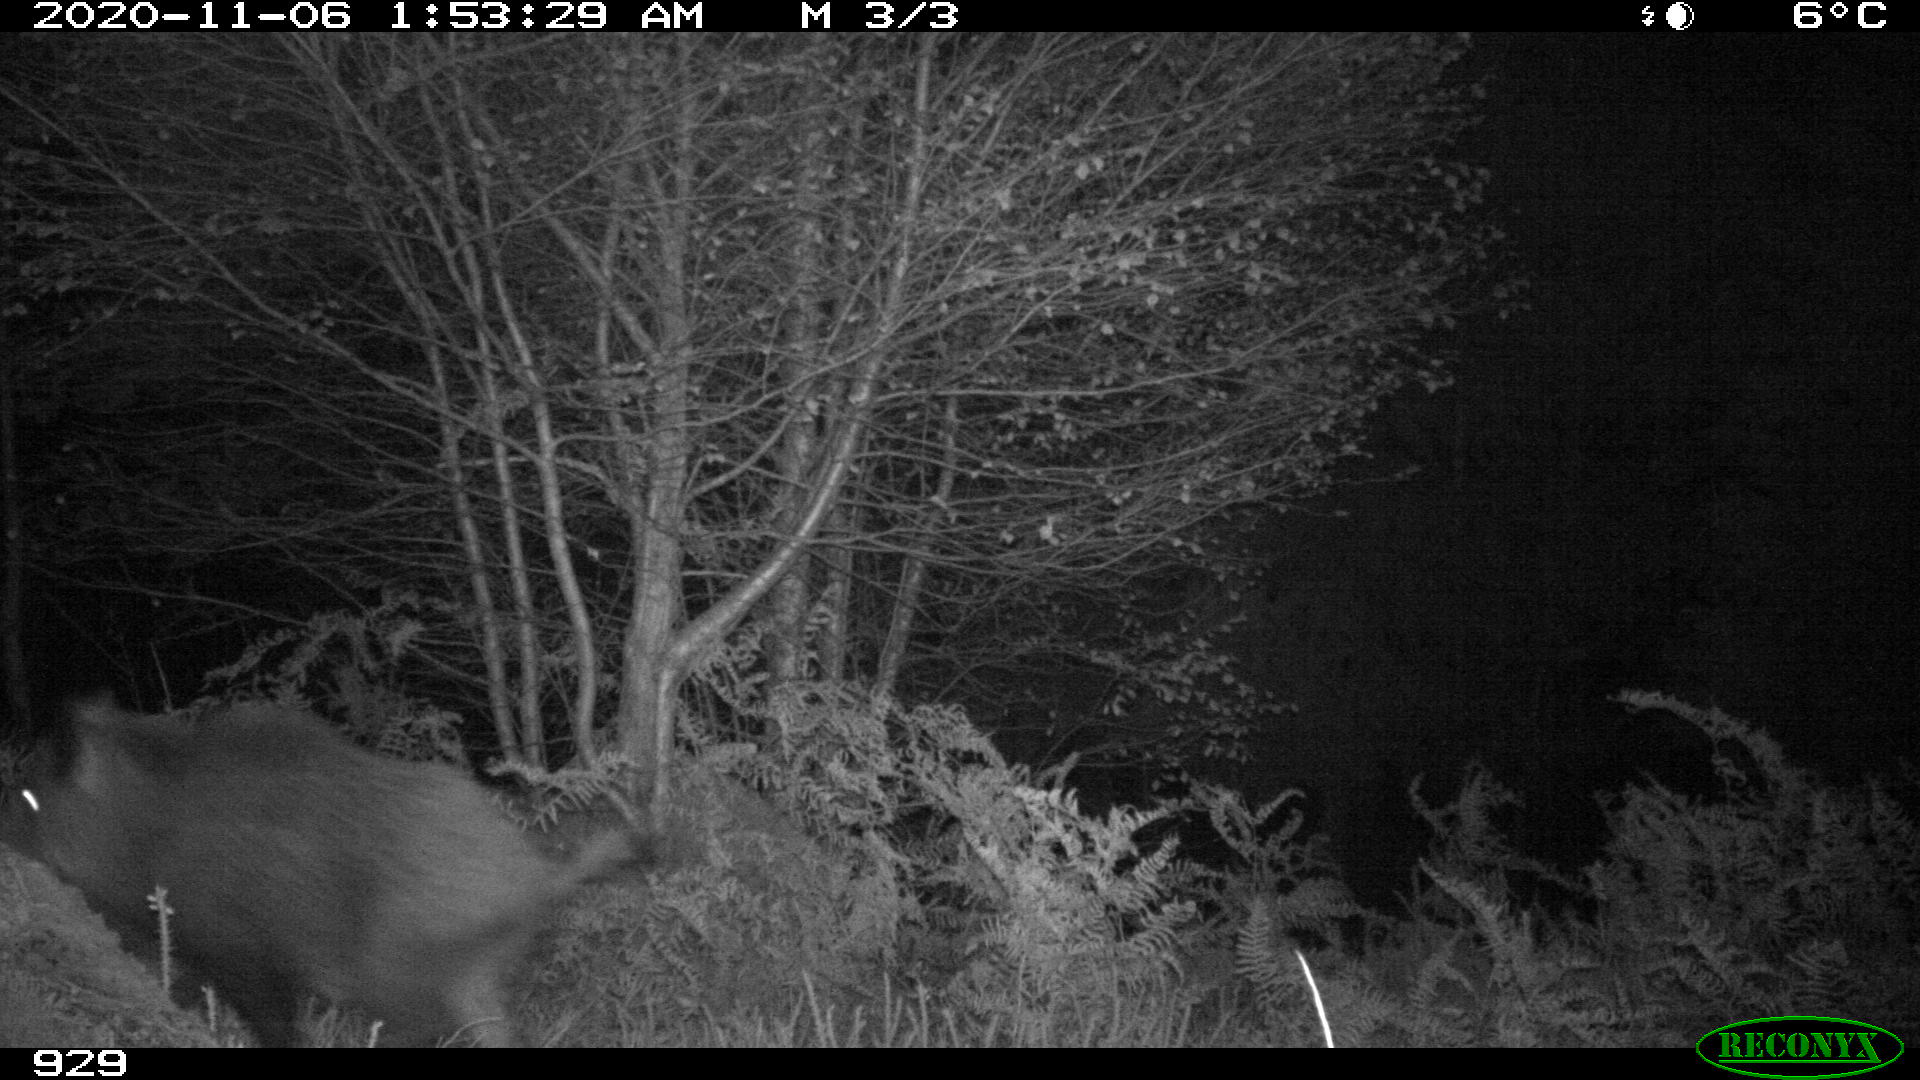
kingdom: Animalia
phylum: Chordata
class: Mammalia
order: Artiodactyla
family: Suidae
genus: Sus
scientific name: Sus scrofa
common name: Wild boar
